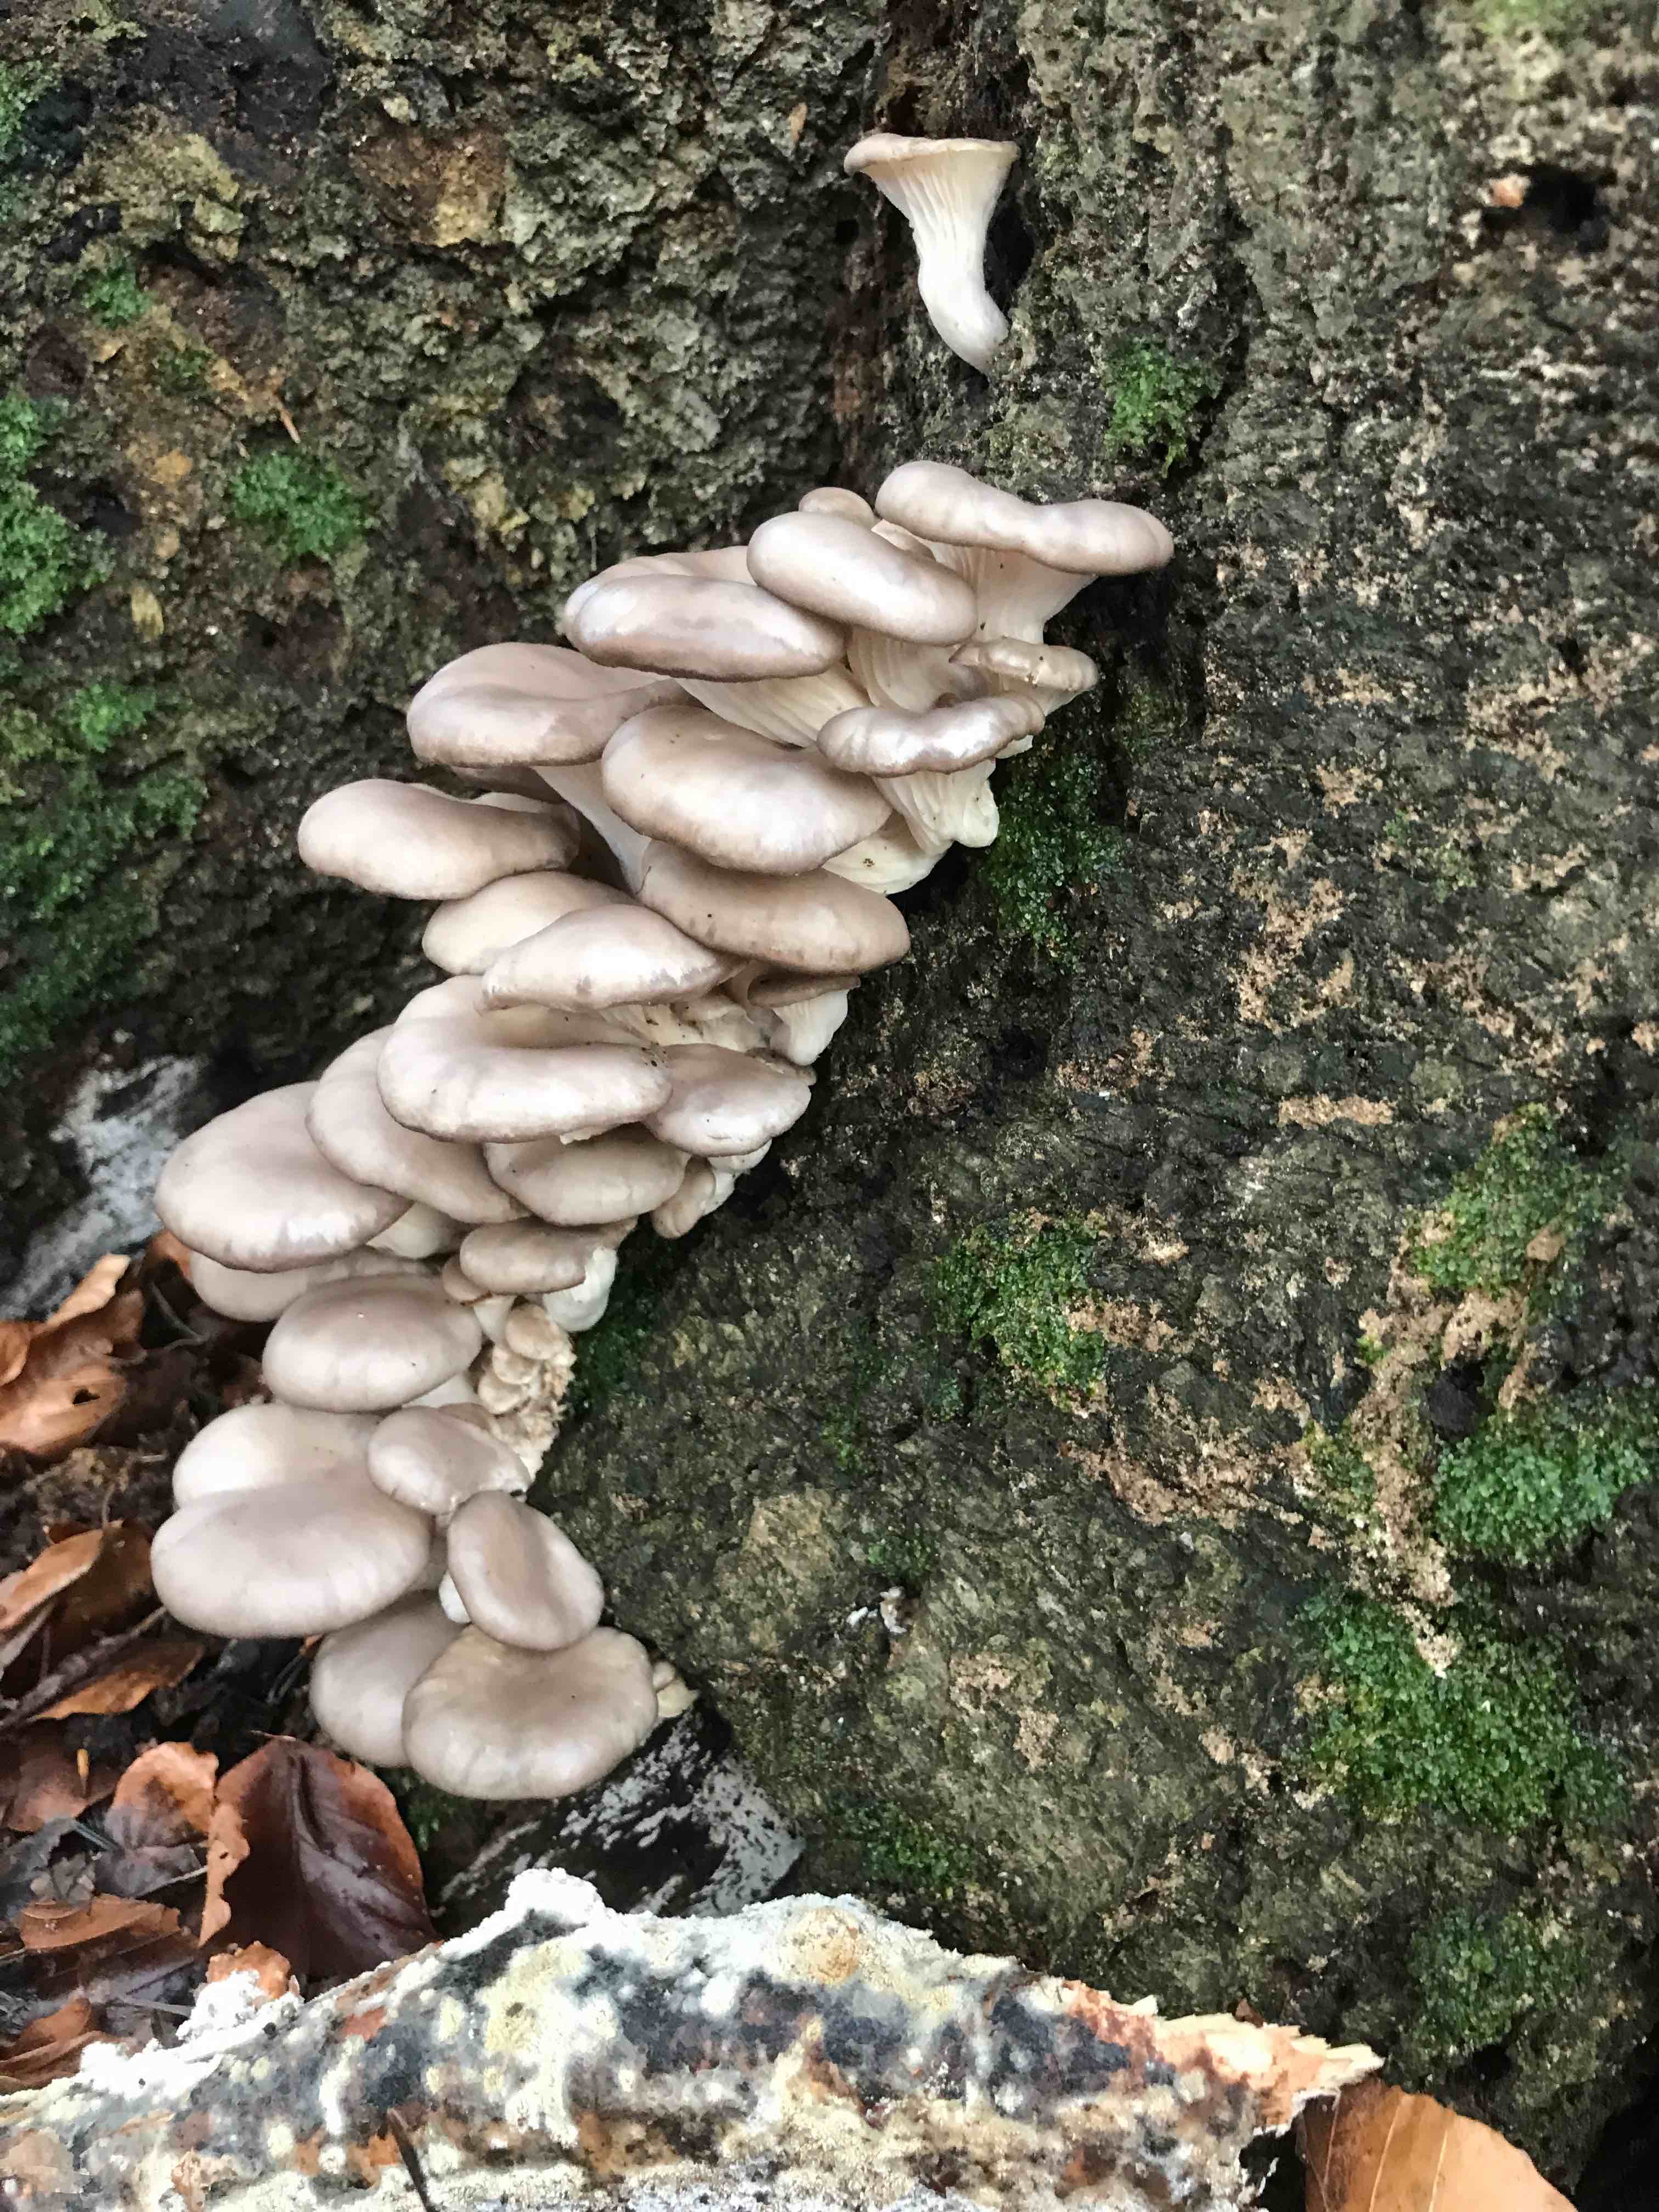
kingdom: Fungi
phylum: Basidiomycota
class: Agaricomycetes
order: Agaricales
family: Pleurotaceae
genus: Pleurotus
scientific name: Pleurotus ostreatus
